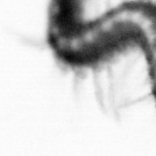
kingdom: Animalia
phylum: Annelida
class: Polychaeta
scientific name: Polychaeta
